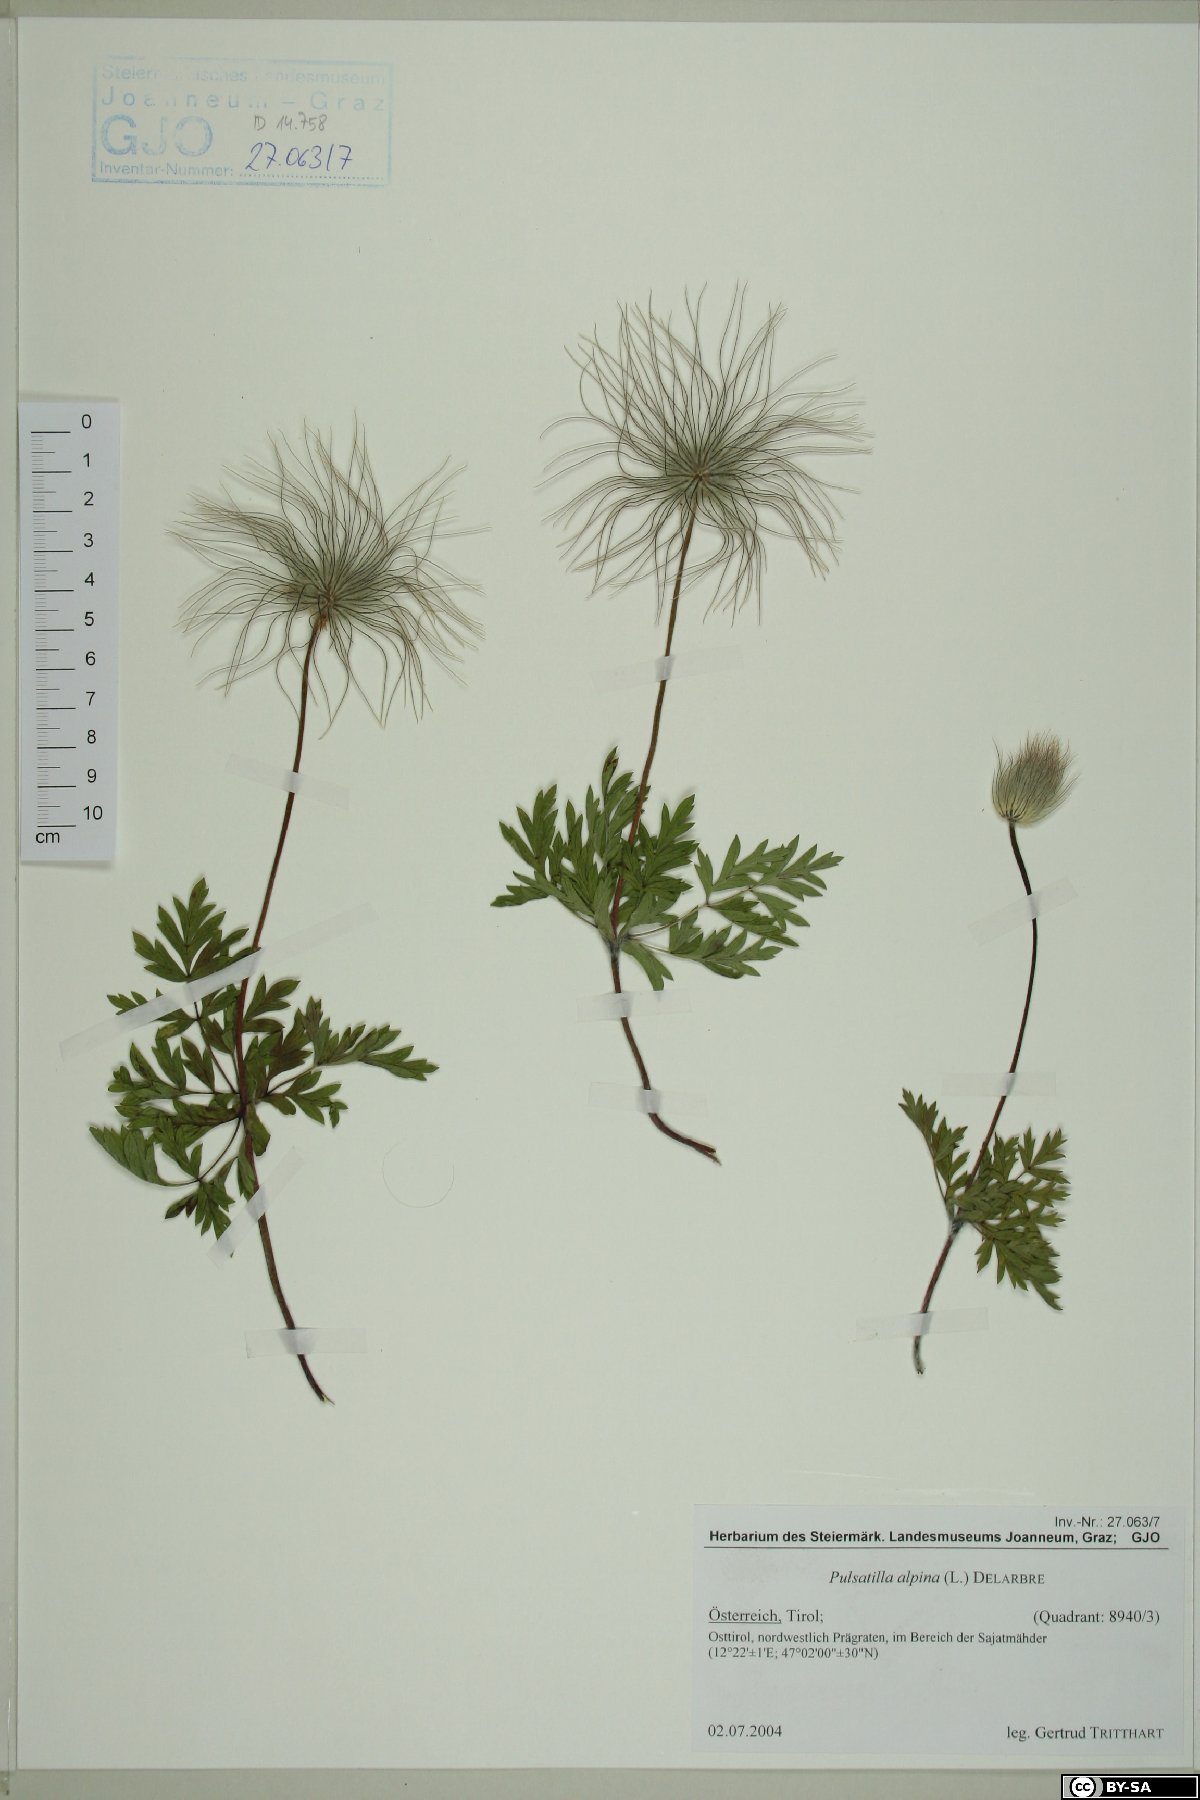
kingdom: Plantae
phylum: Tracheophyta
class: Magnoliopsida
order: Ranunculales
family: Ranunculaceae
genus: Pulsatilla
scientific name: Pulsatilla alpina
